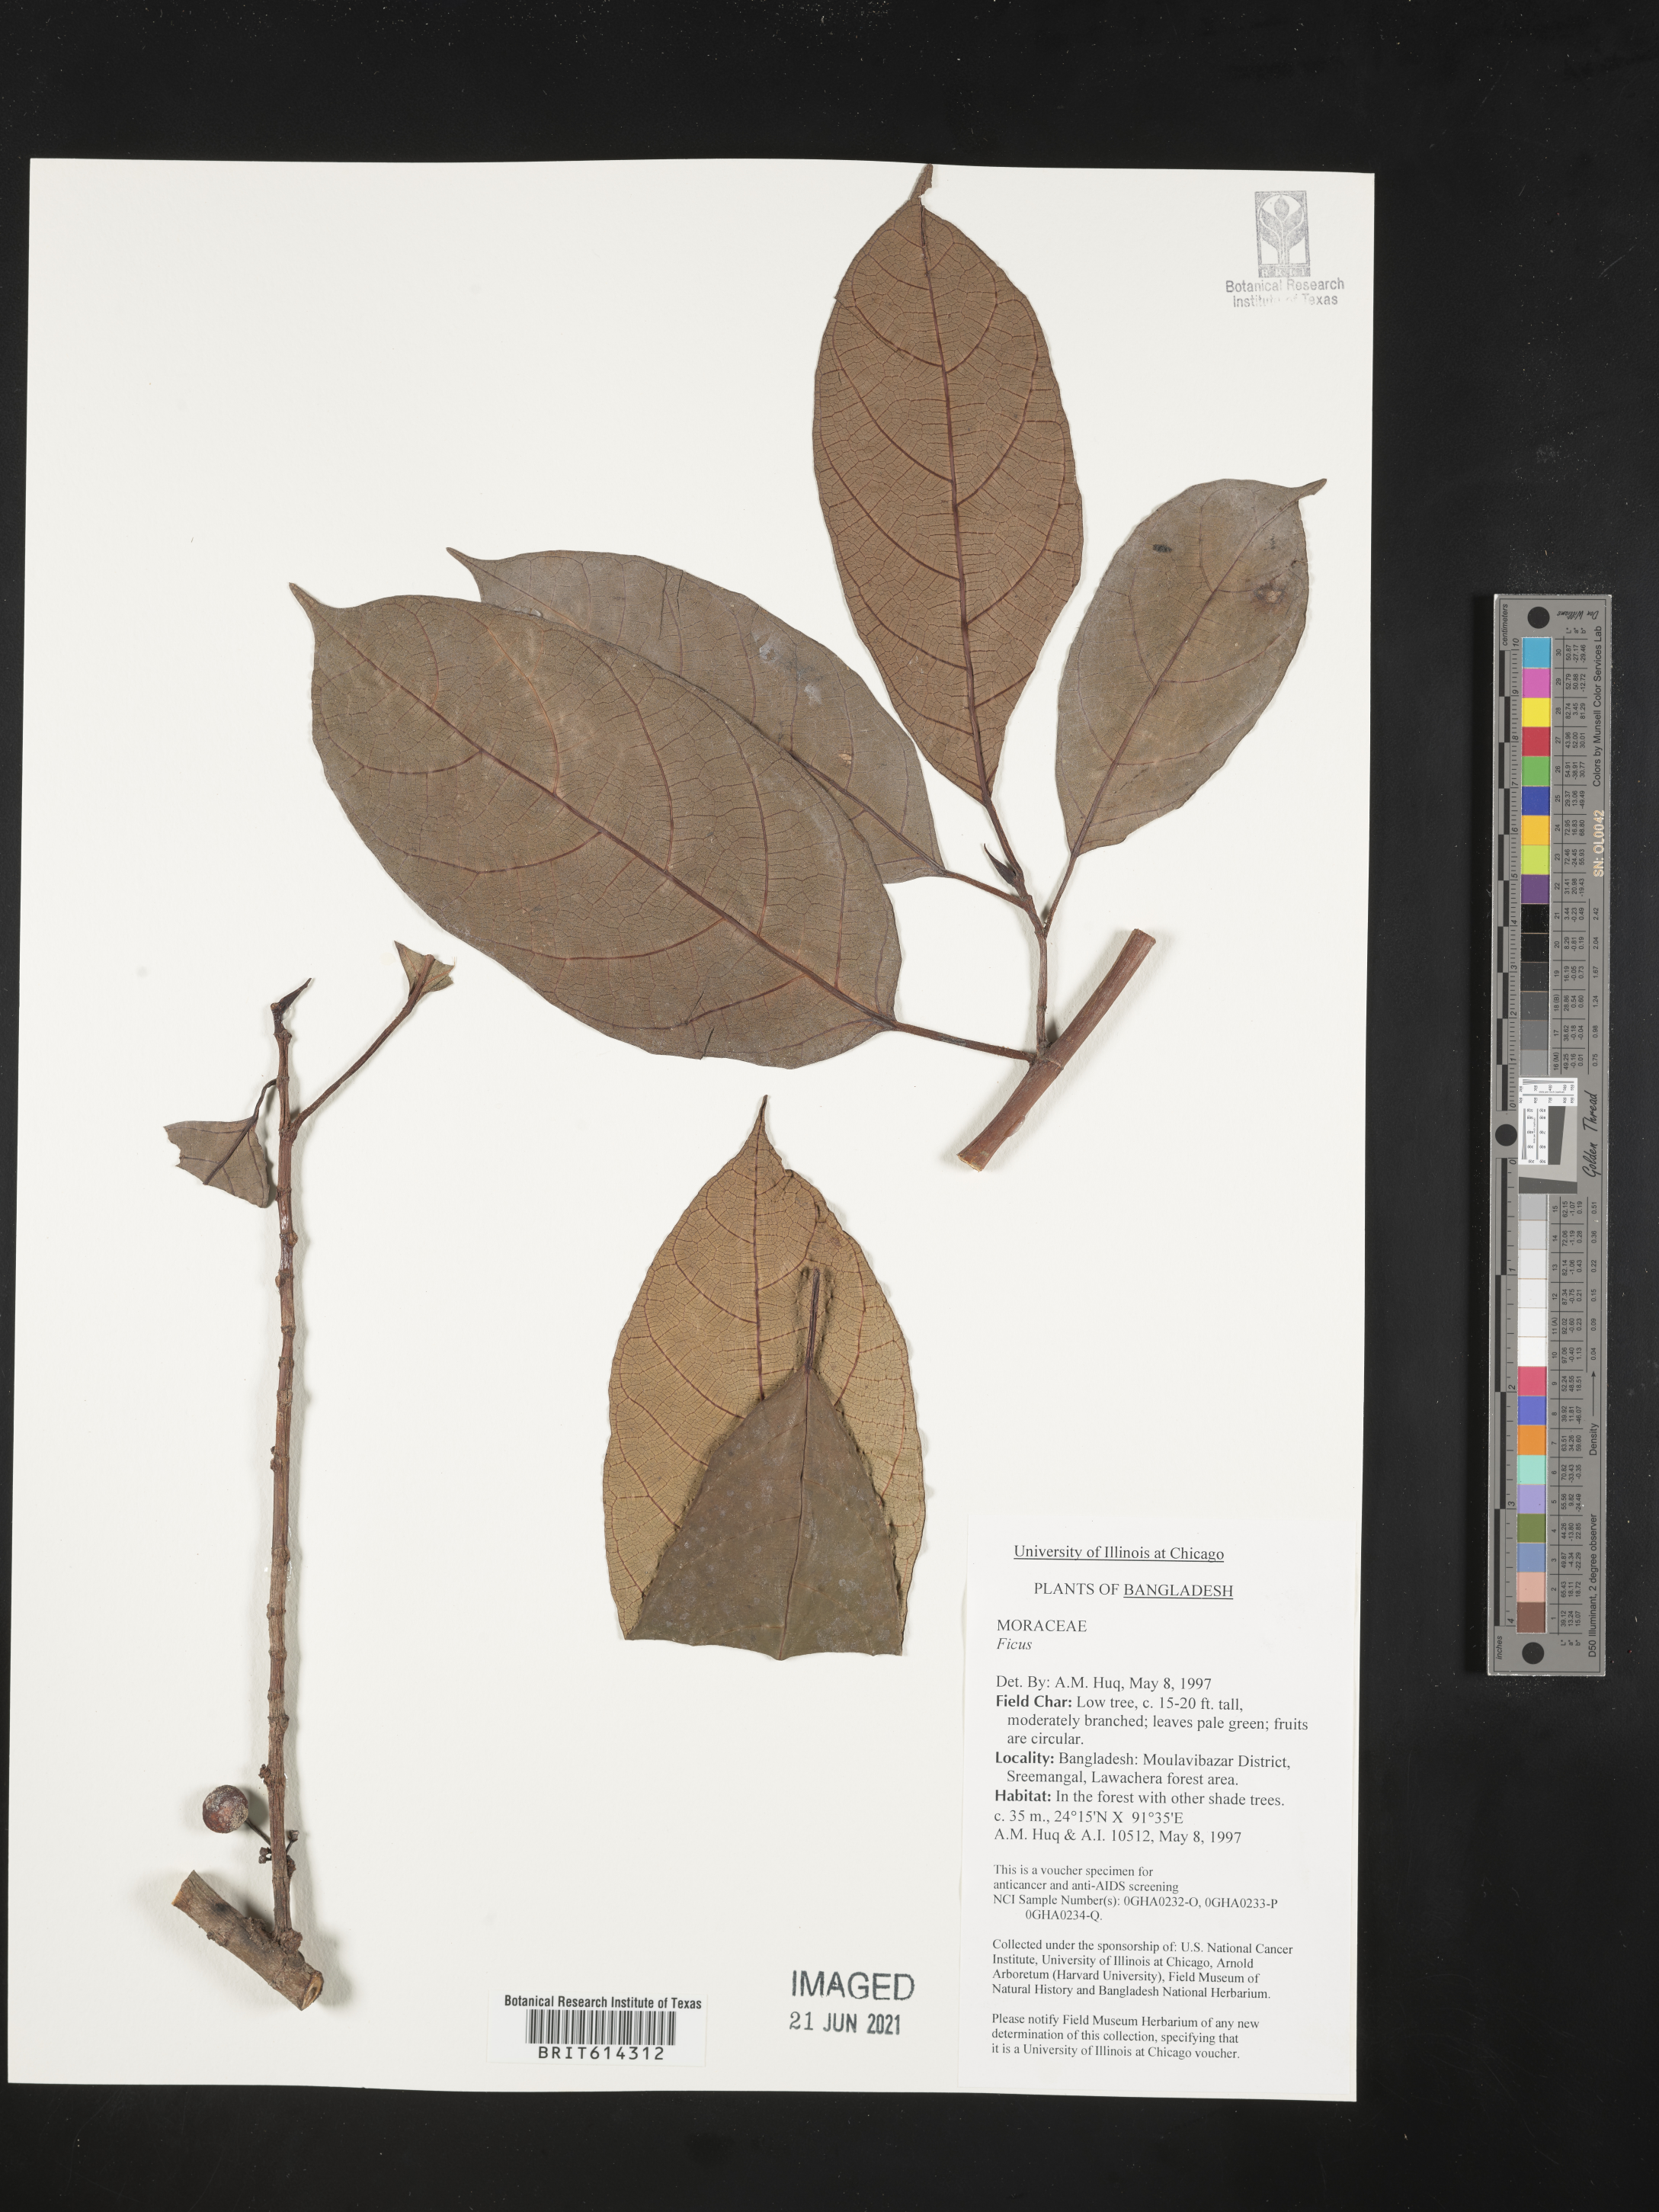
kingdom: Plantae
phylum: Tracheophyta
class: Magnoliopsida
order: Rosales
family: Moraceae
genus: Ficus
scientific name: Ficus
